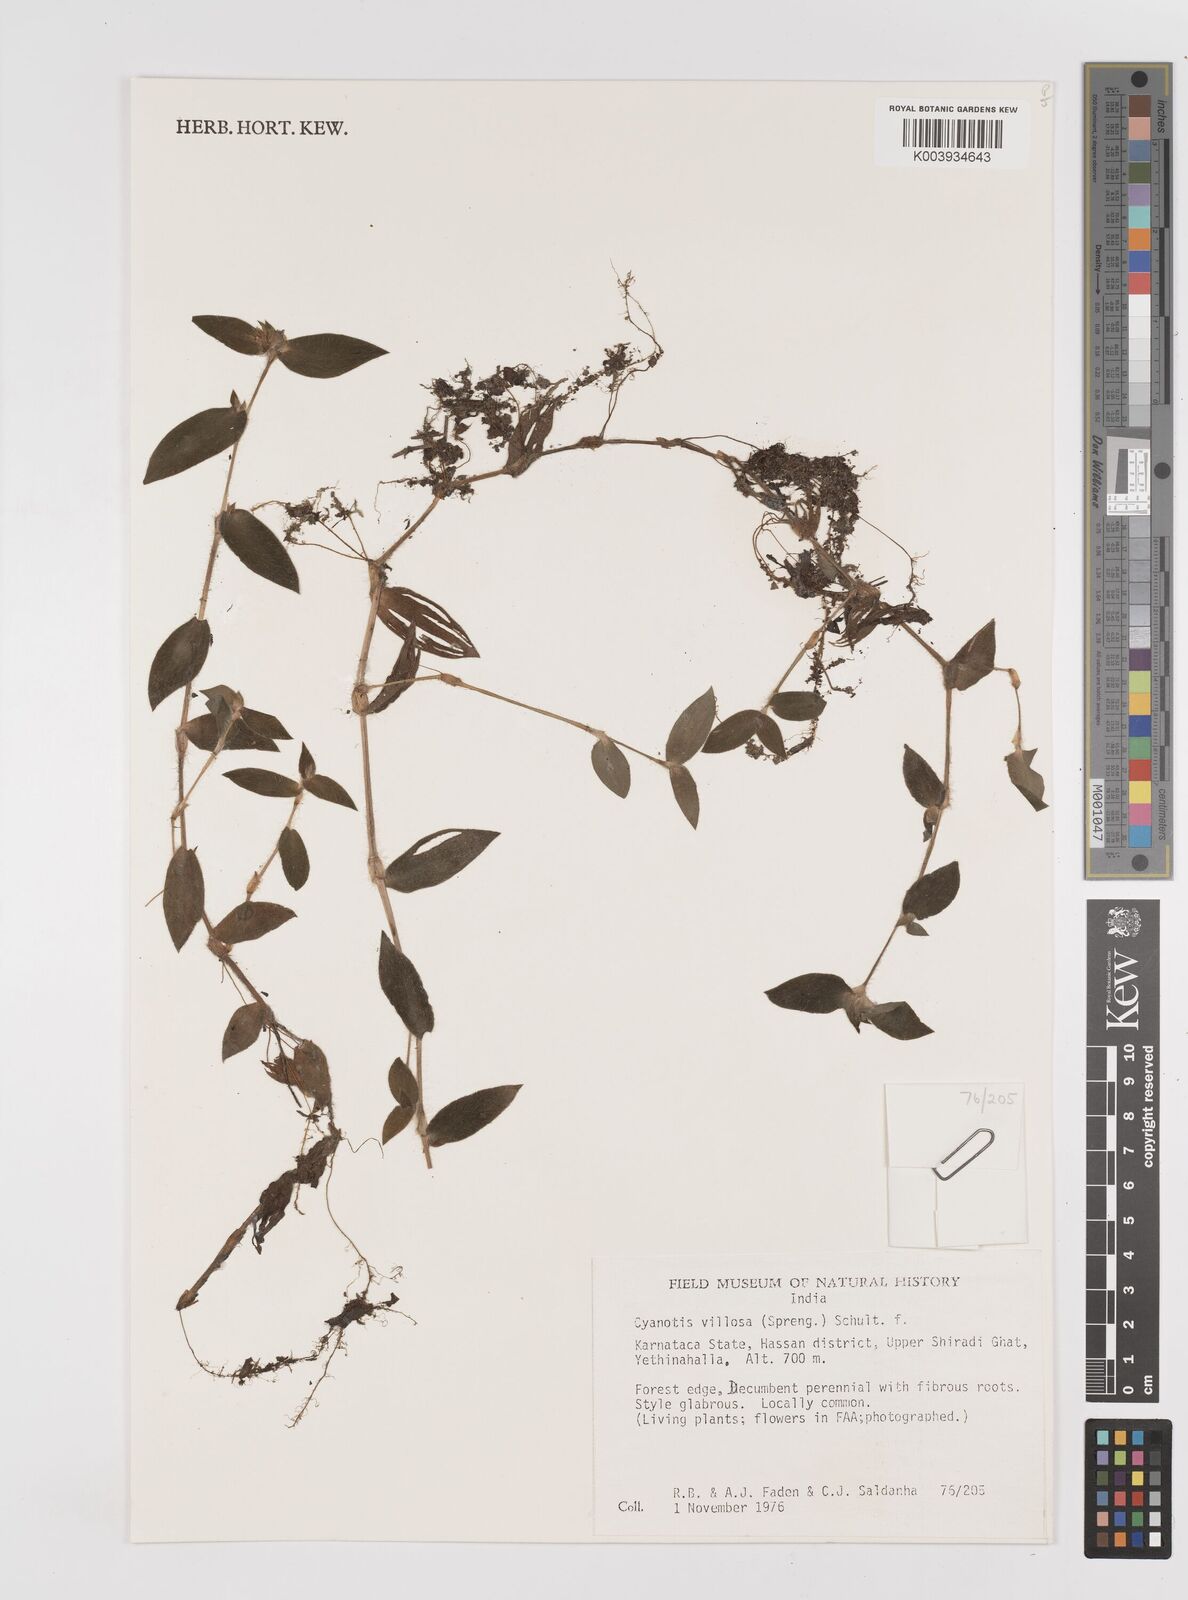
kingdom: Plantae
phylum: Tracheophyta
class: Liliopsida
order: Commelinales
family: Commelinaceae
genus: Cyanotis
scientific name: Cyanotis villosa
